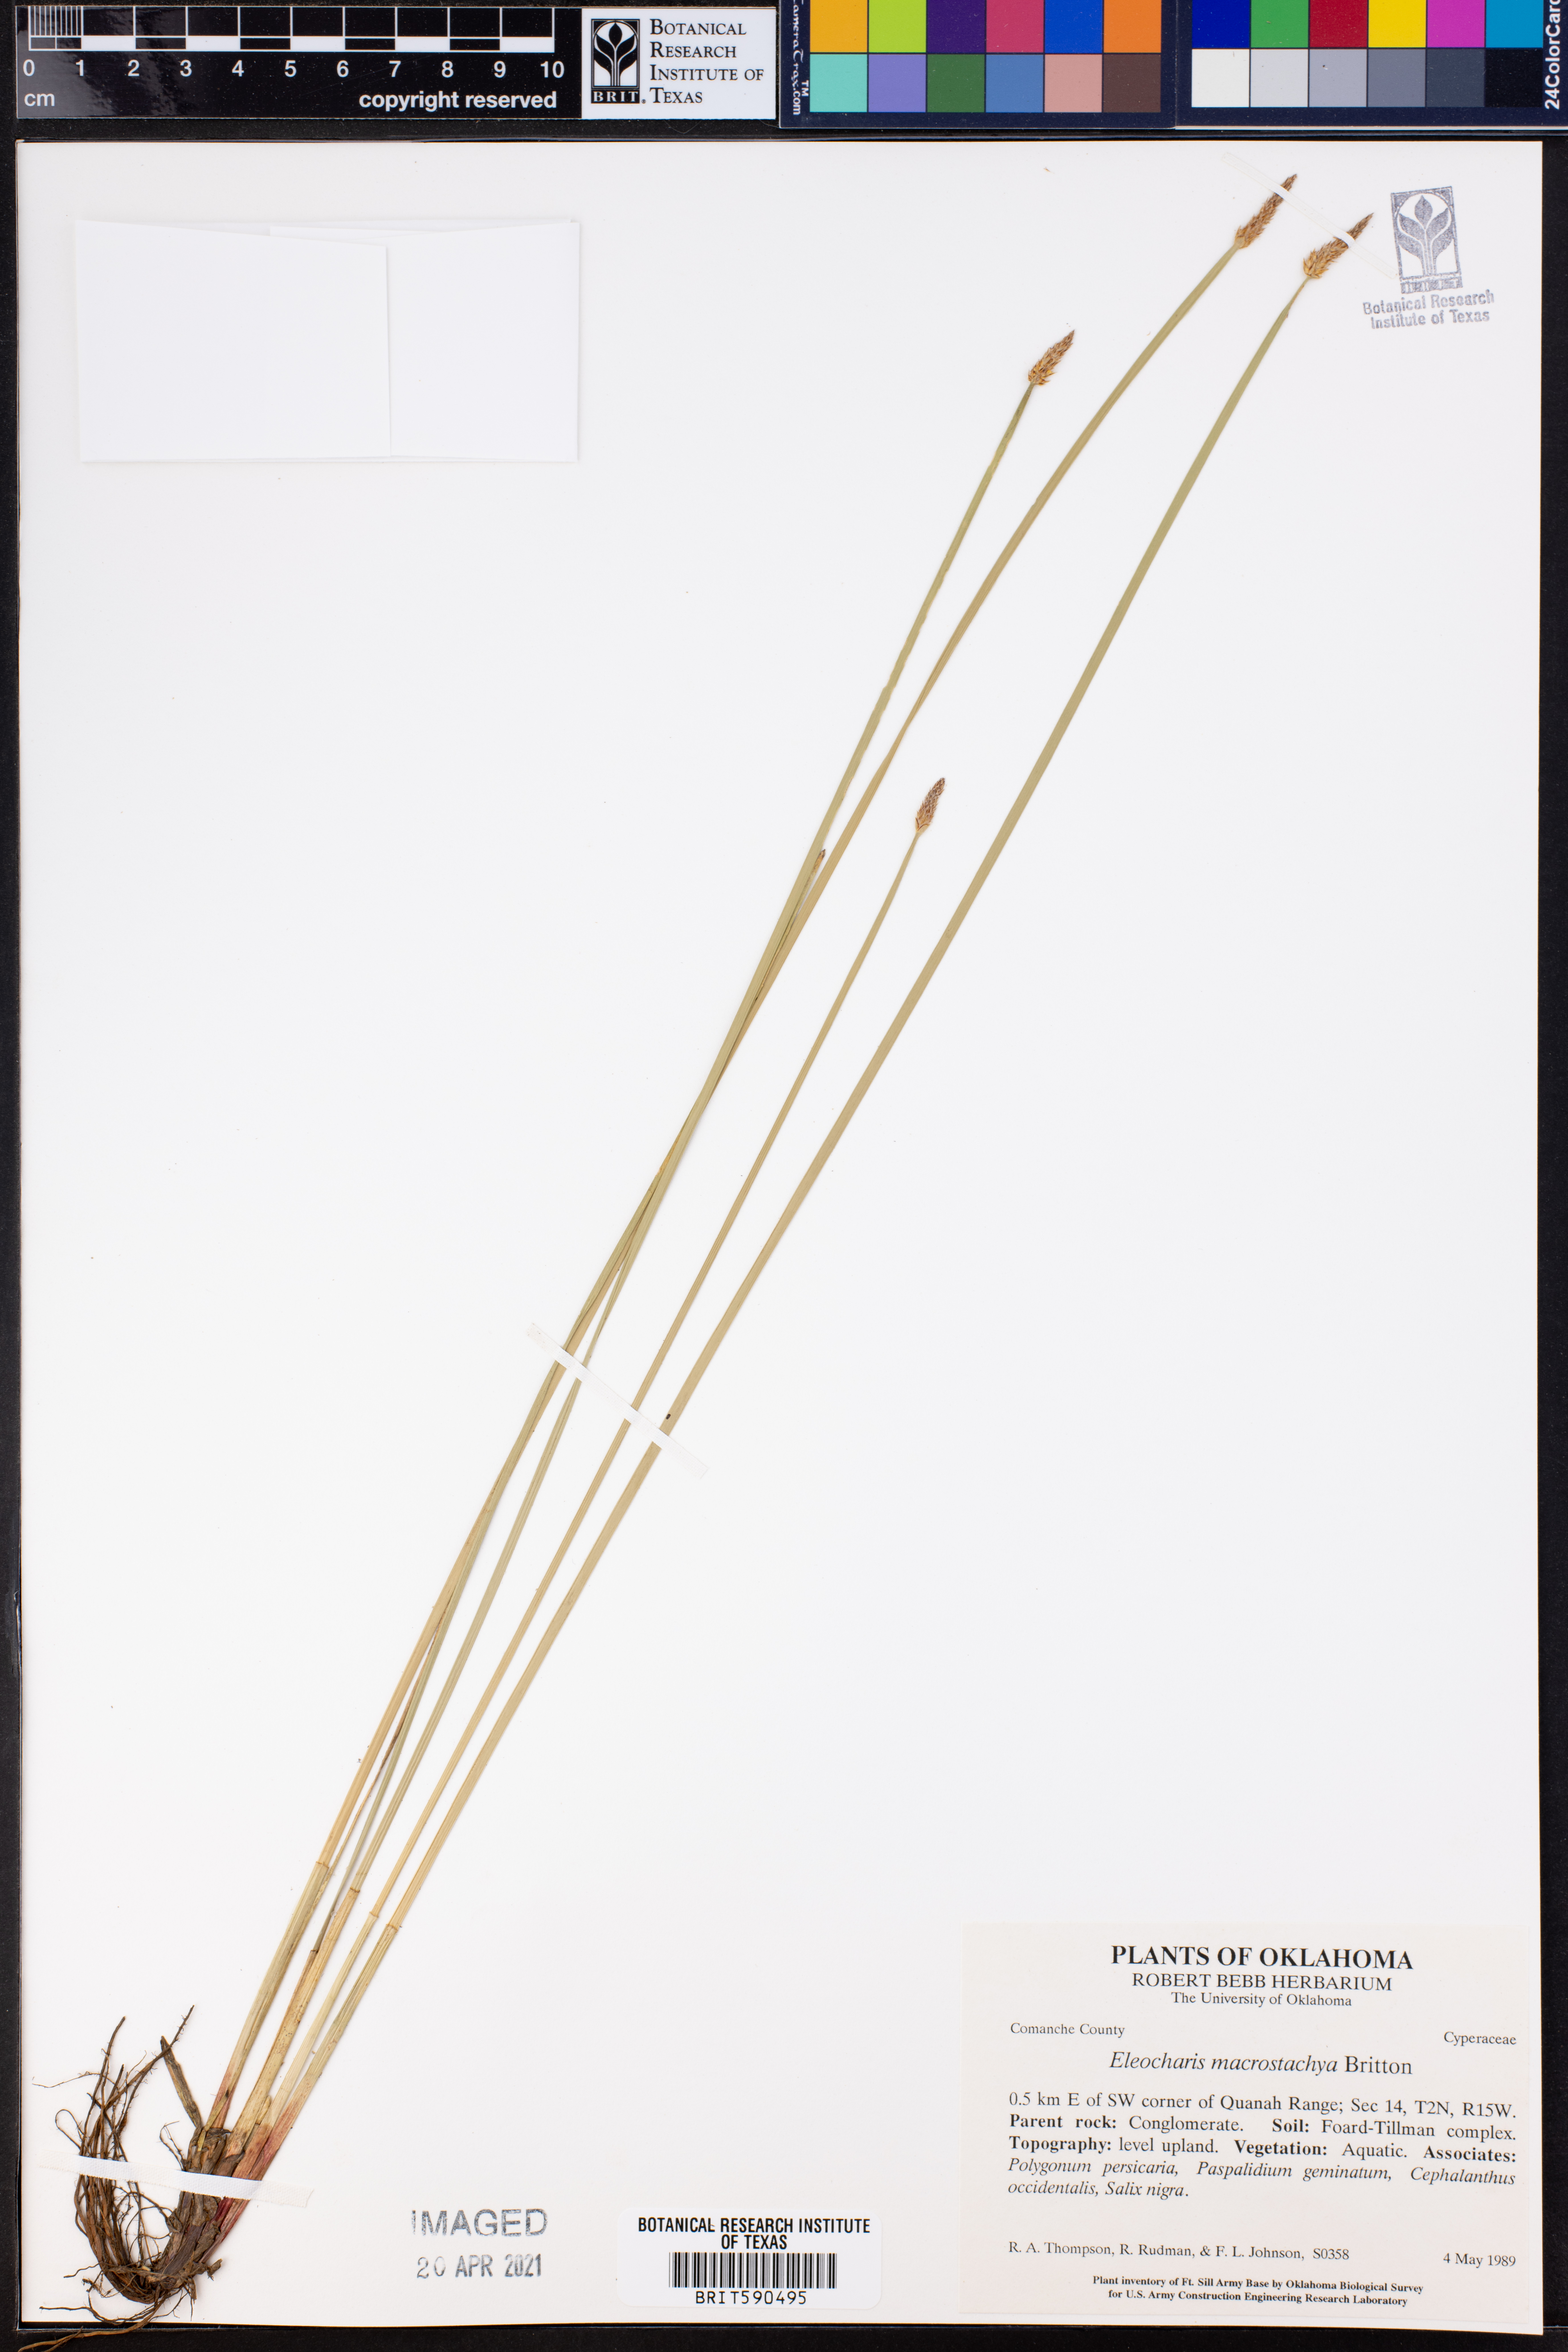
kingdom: Plantae
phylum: Tracheophyta
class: Liliopsida
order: Poales
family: Cyperaceae
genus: Eleocharis
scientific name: Eleocharis macrostachya
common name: Pale spikerush
